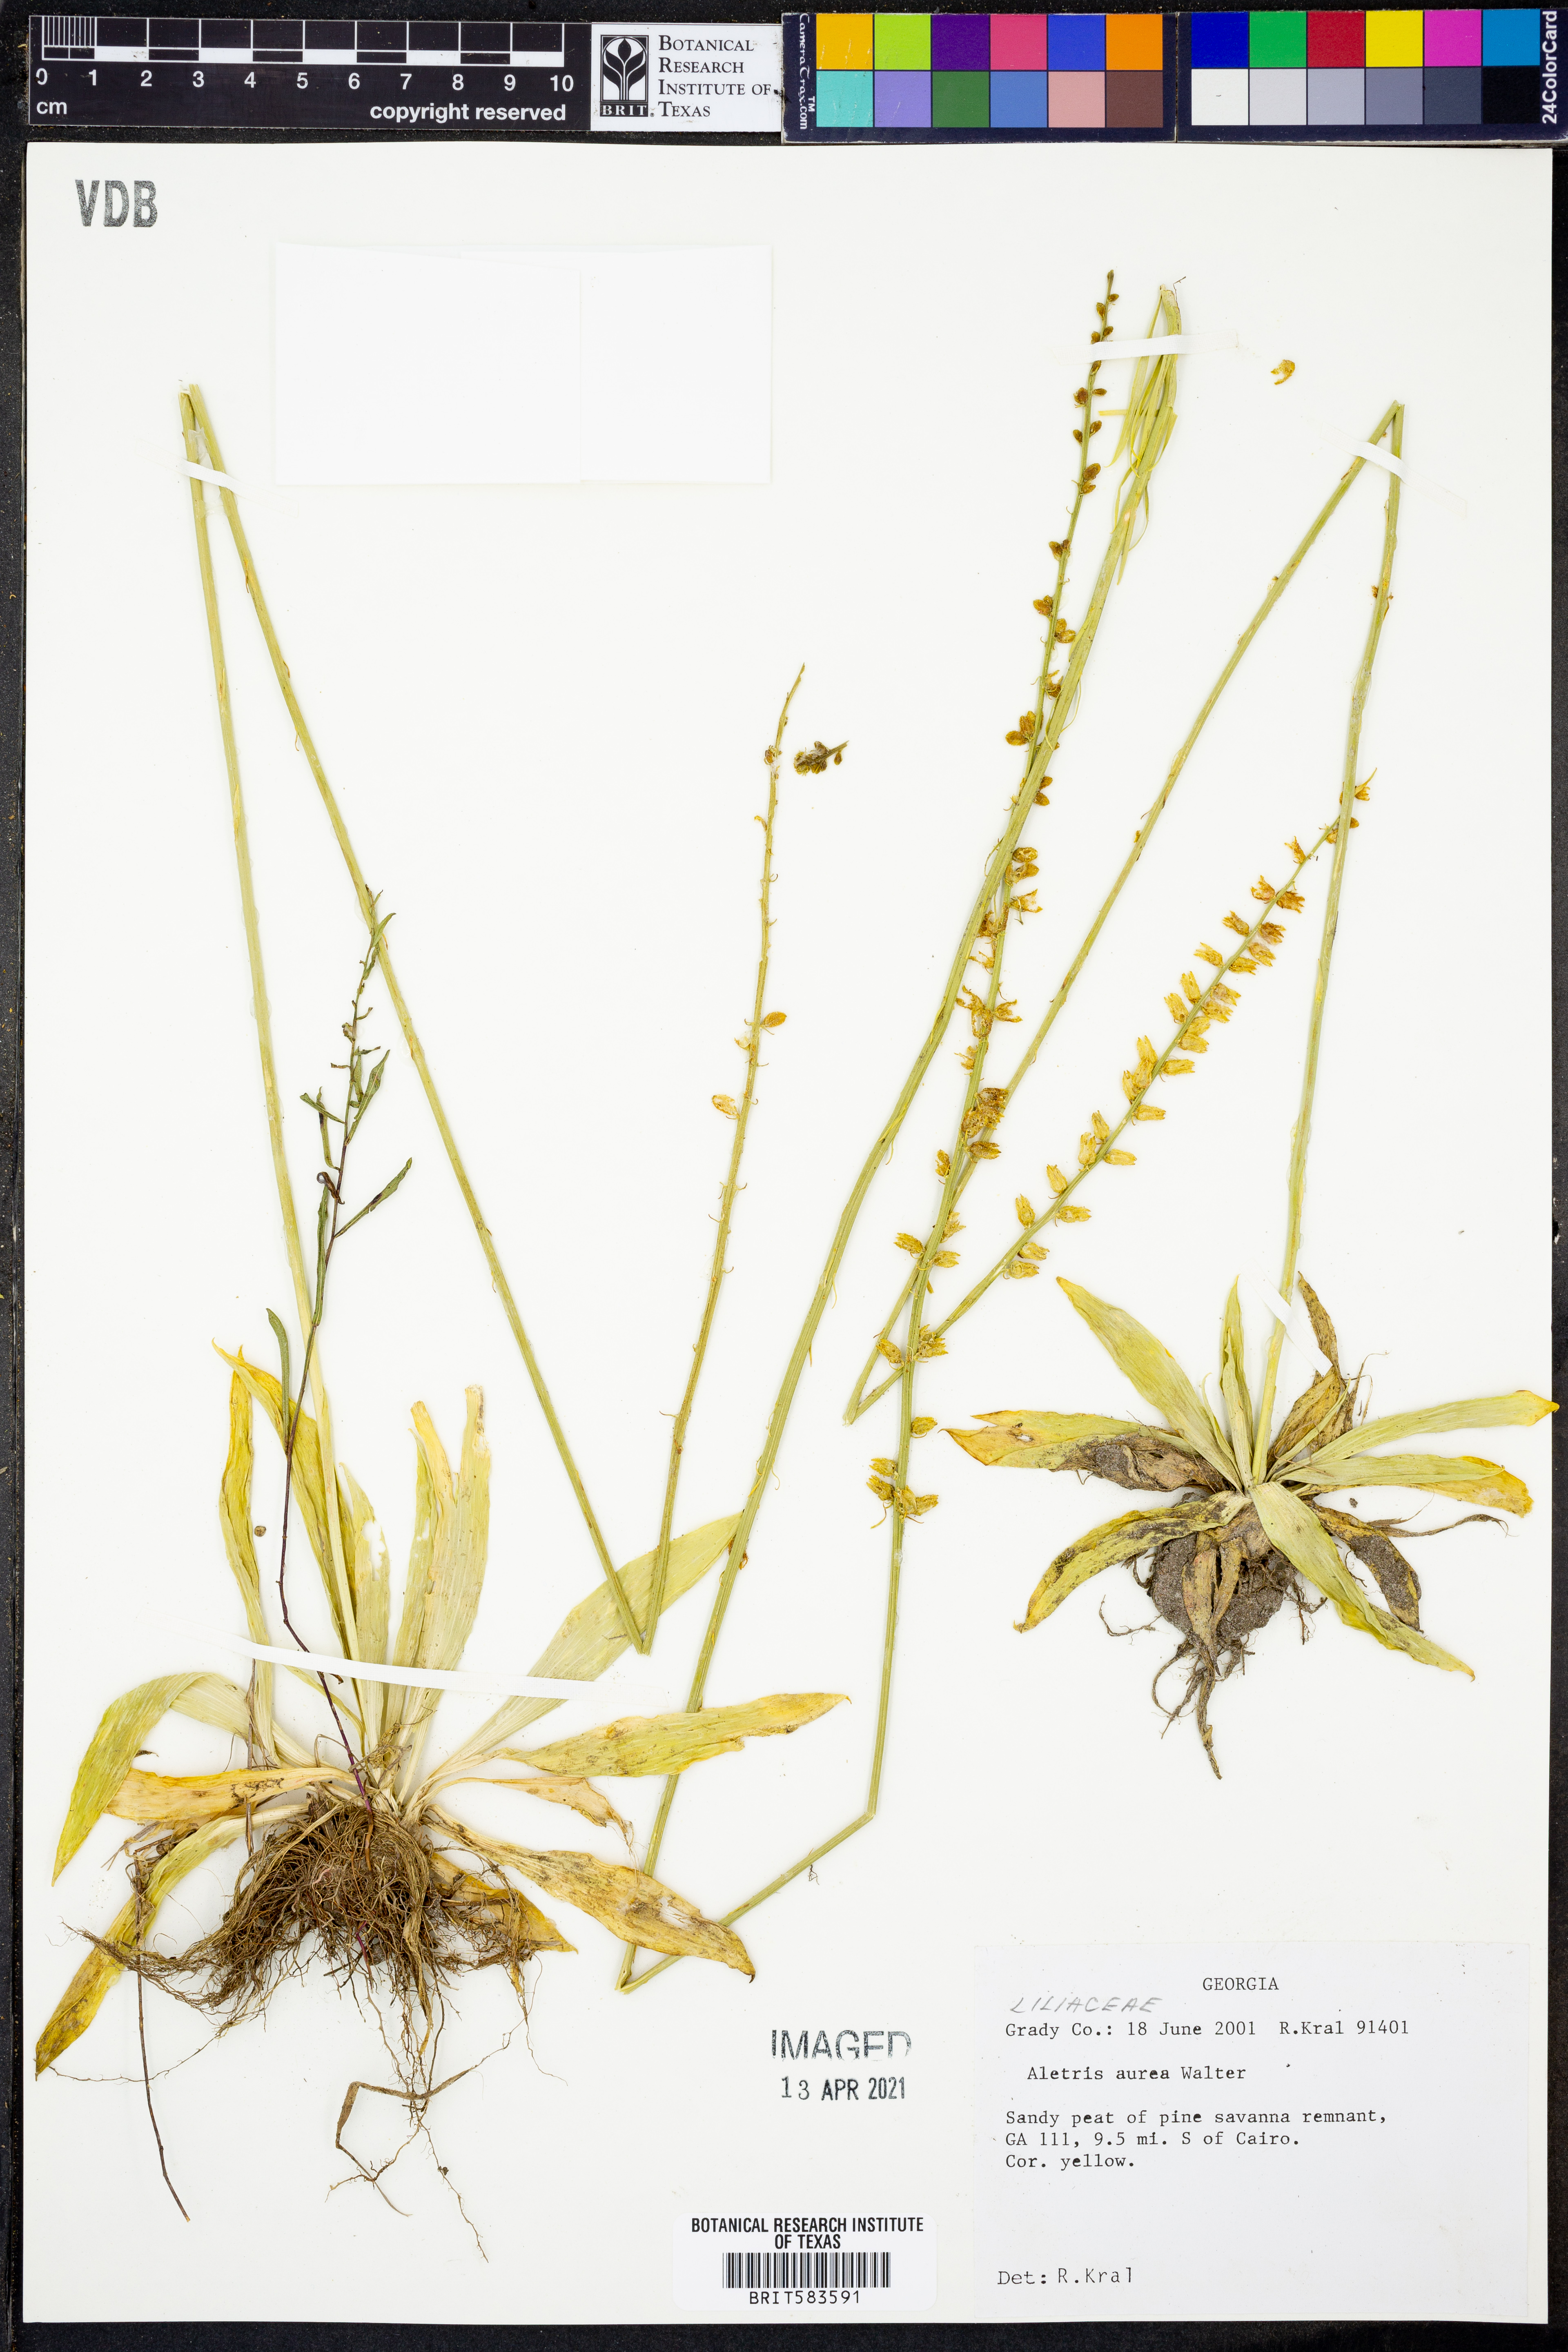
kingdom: Plantae
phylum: Tracheophyta
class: Liliopsida
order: Dioscoreales
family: Nartheciaceae
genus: Aletris
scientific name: Aletris aurea
